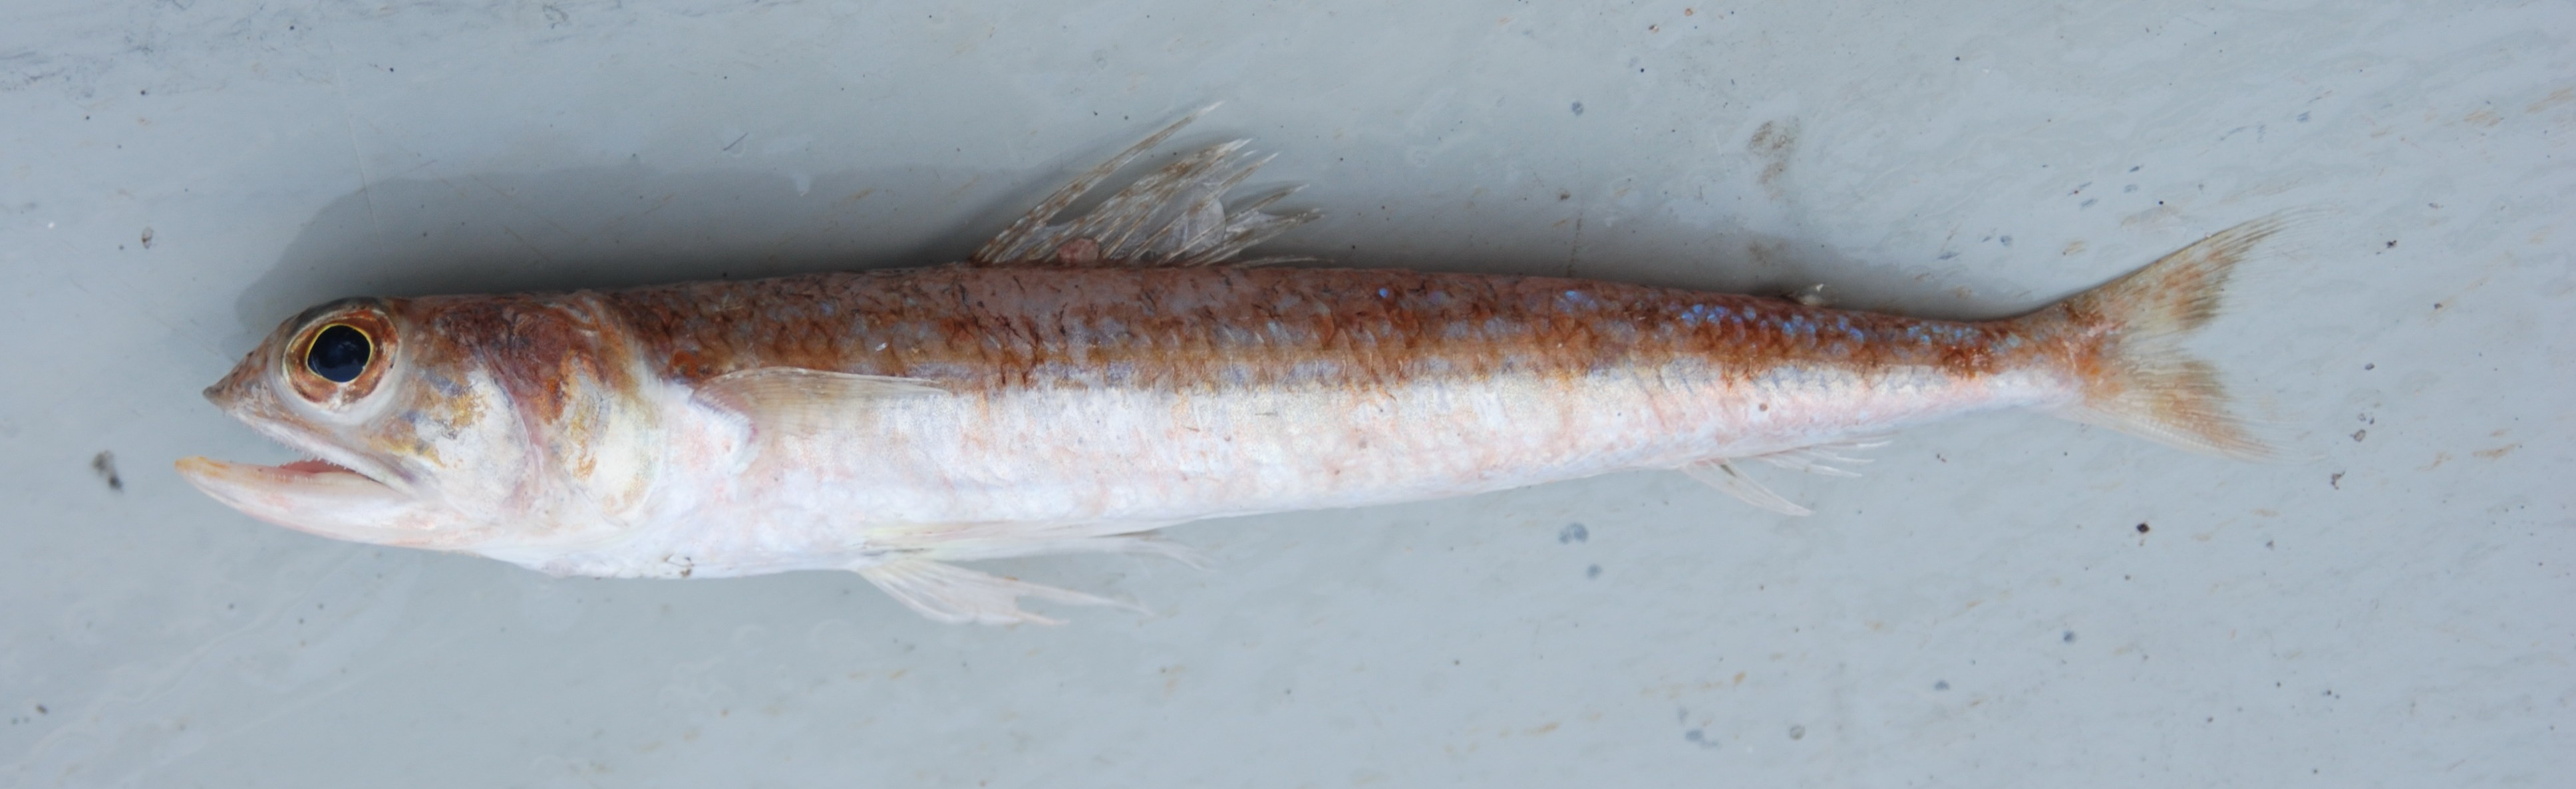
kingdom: Animalia
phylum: Chordata
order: Aulopiformes
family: Synodontidae
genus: Synodus
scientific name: Synodus
